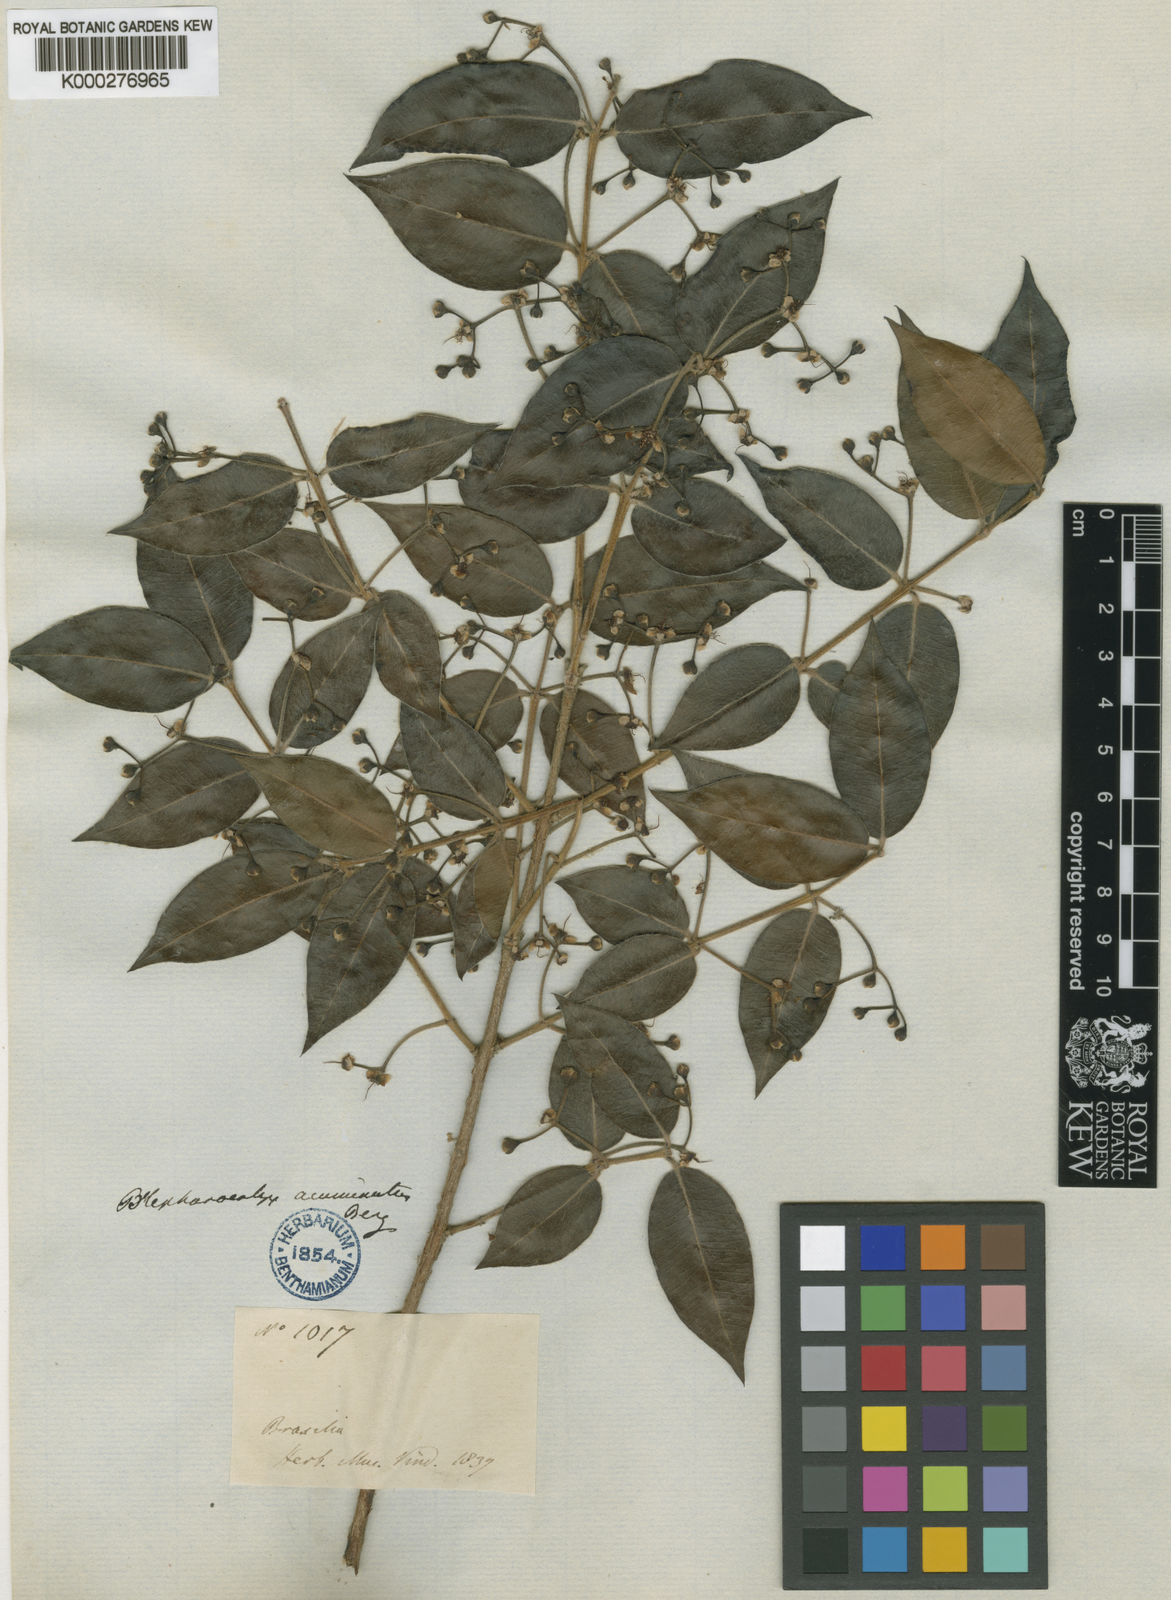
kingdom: Plantae
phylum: Tracheophyta
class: Magnoliopsida
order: Myrtales
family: Myrtaceae
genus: Blepharocalyx
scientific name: Blepharocalyx salicifolius
